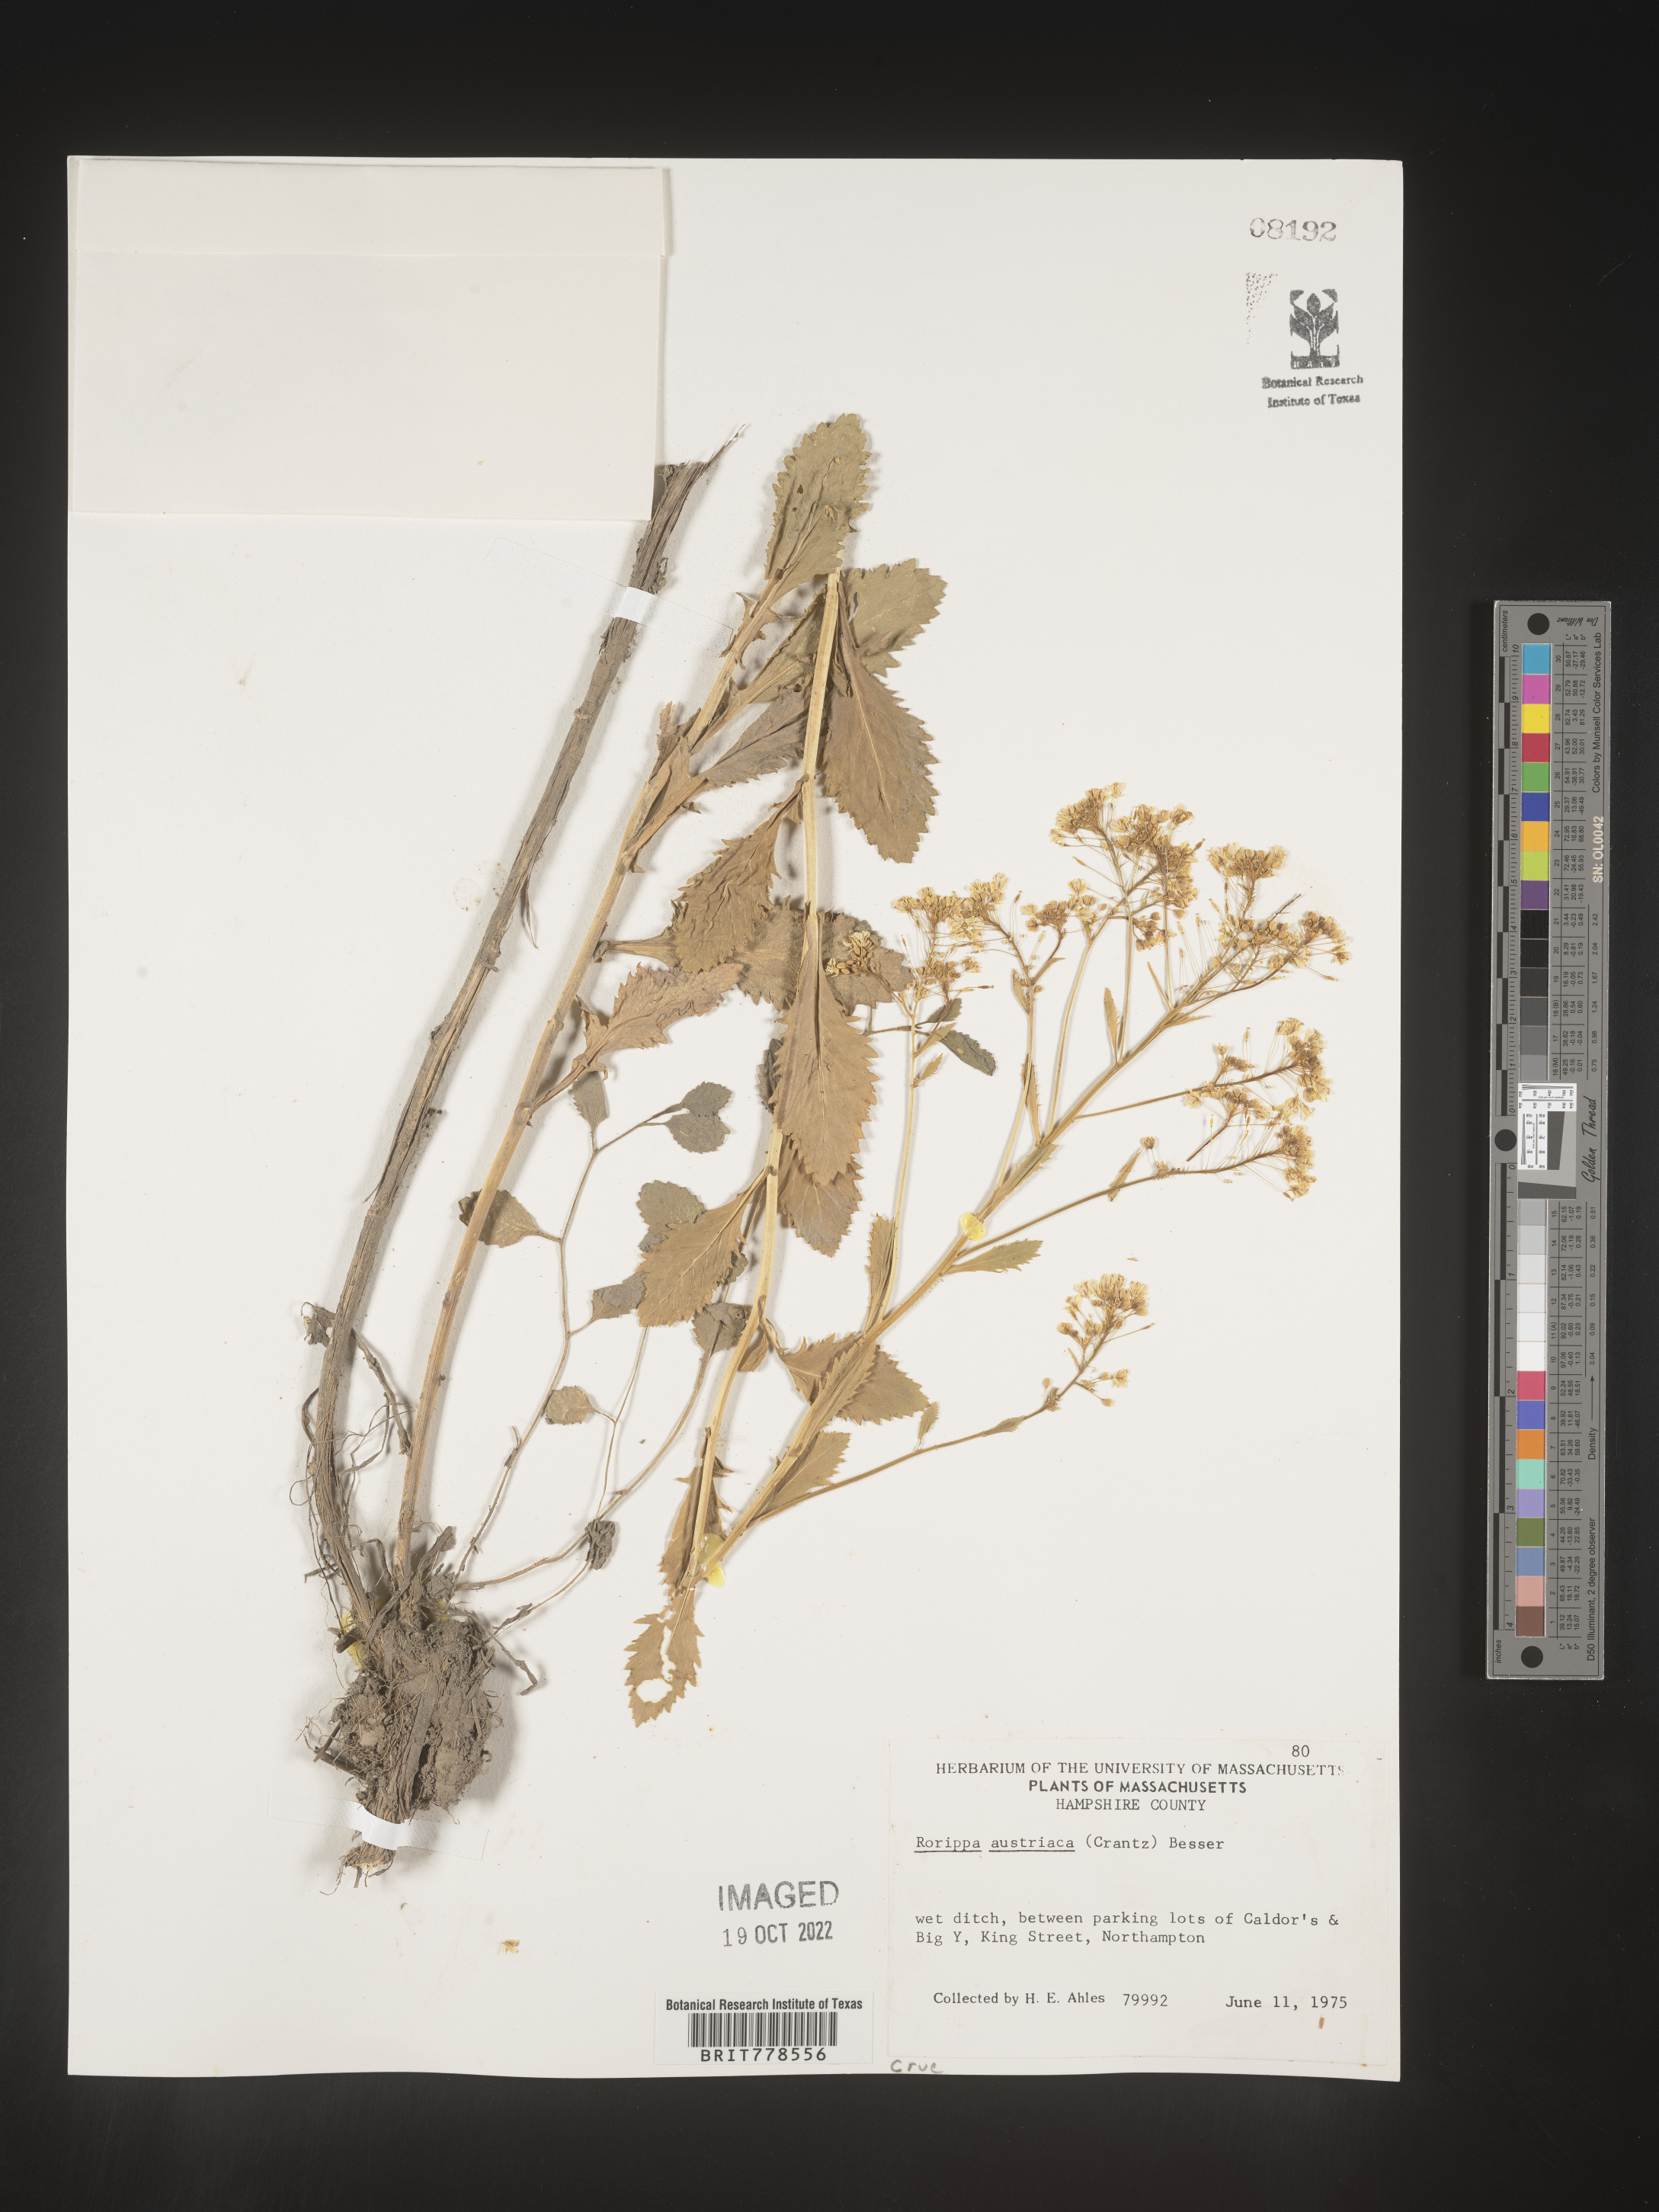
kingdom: Plantae
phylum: Tracheophyta
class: Magnoliopsida
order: Brassicales
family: Brassicaceae
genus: Rorippa
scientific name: Rorippa
